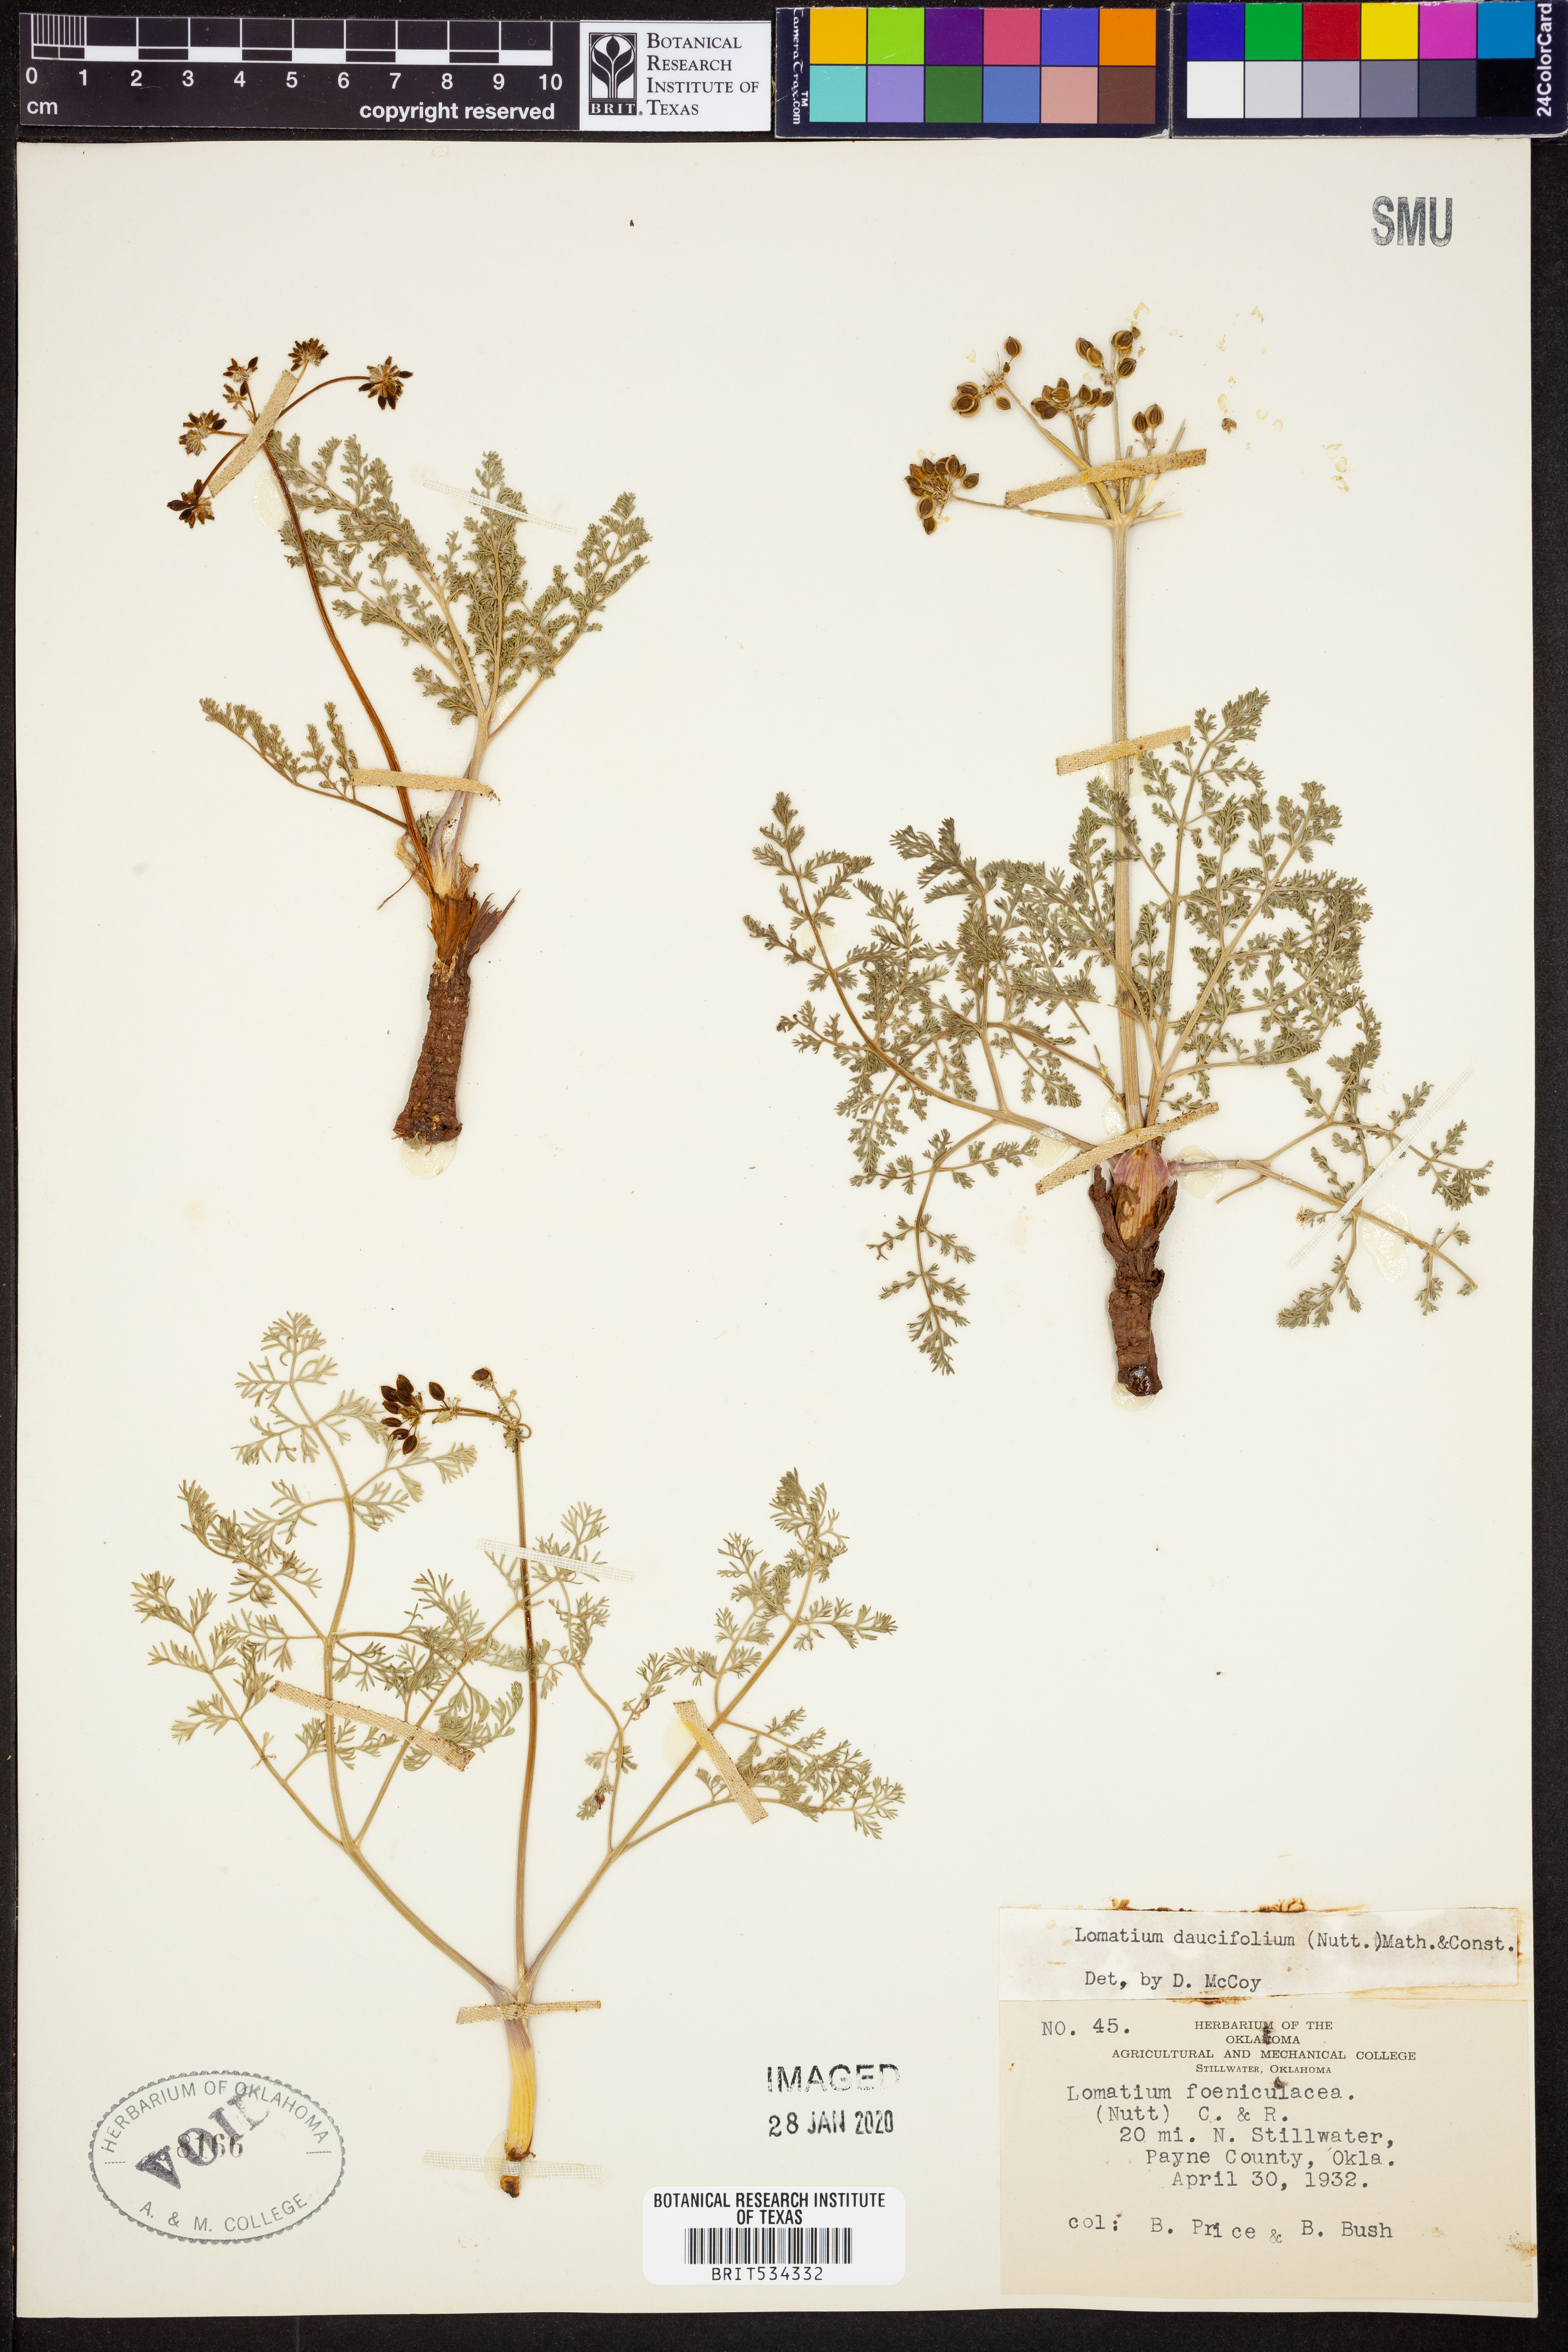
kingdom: Plantae
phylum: Tracheophyta
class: Magnoliopsida
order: Apiales
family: Apiaceae
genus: Lomatium
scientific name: Lomatium foeniculaceum
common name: Desert-parsley
